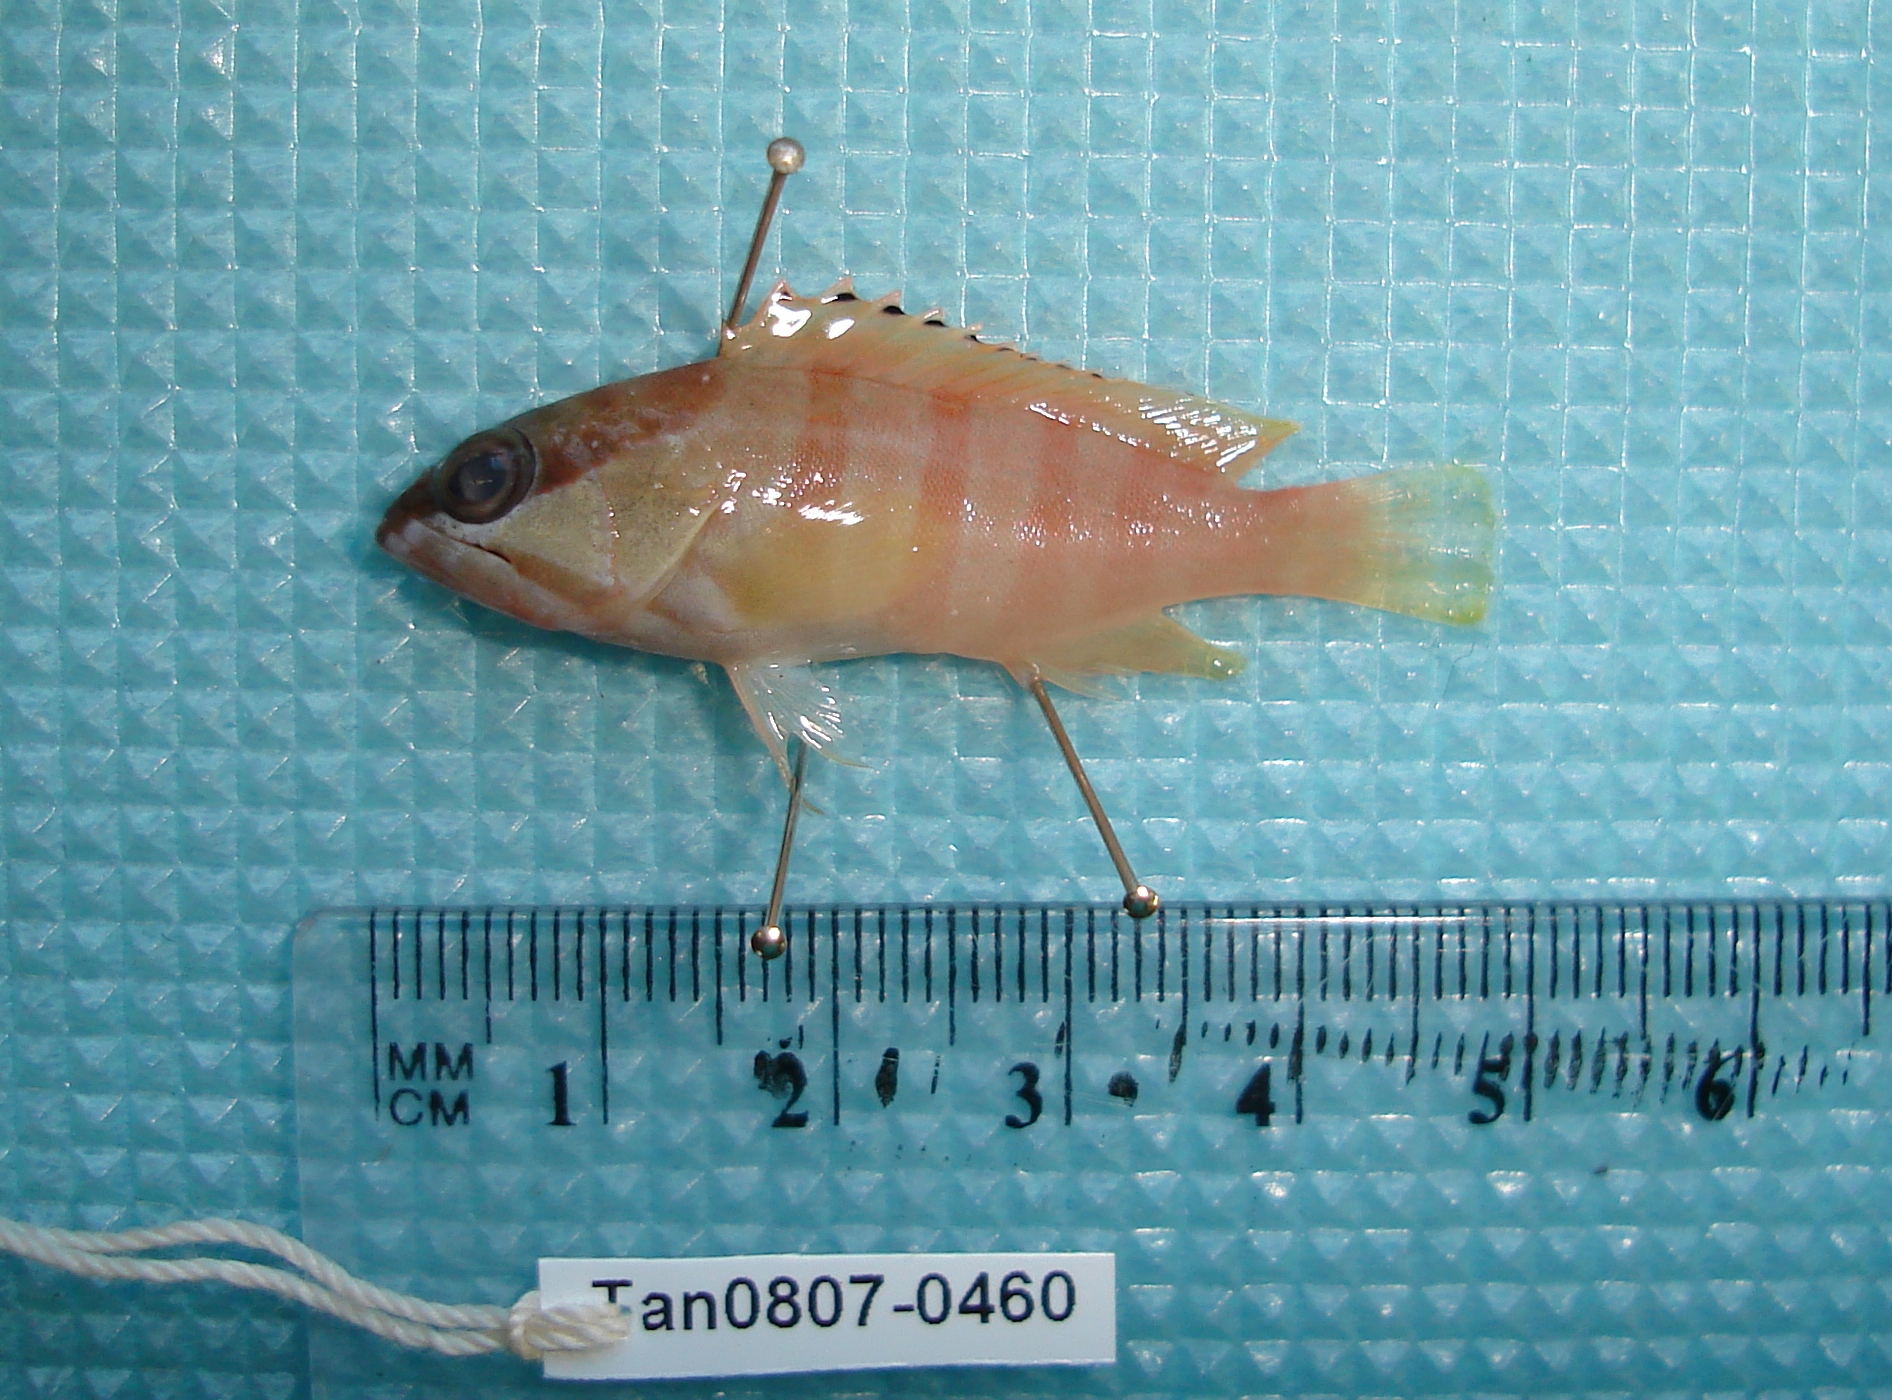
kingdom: Animalia
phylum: Chordata
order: Perciformes
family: Serranidae
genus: Epinephelus
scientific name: Epinephelus fasciatus
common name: Blacktip grouper
